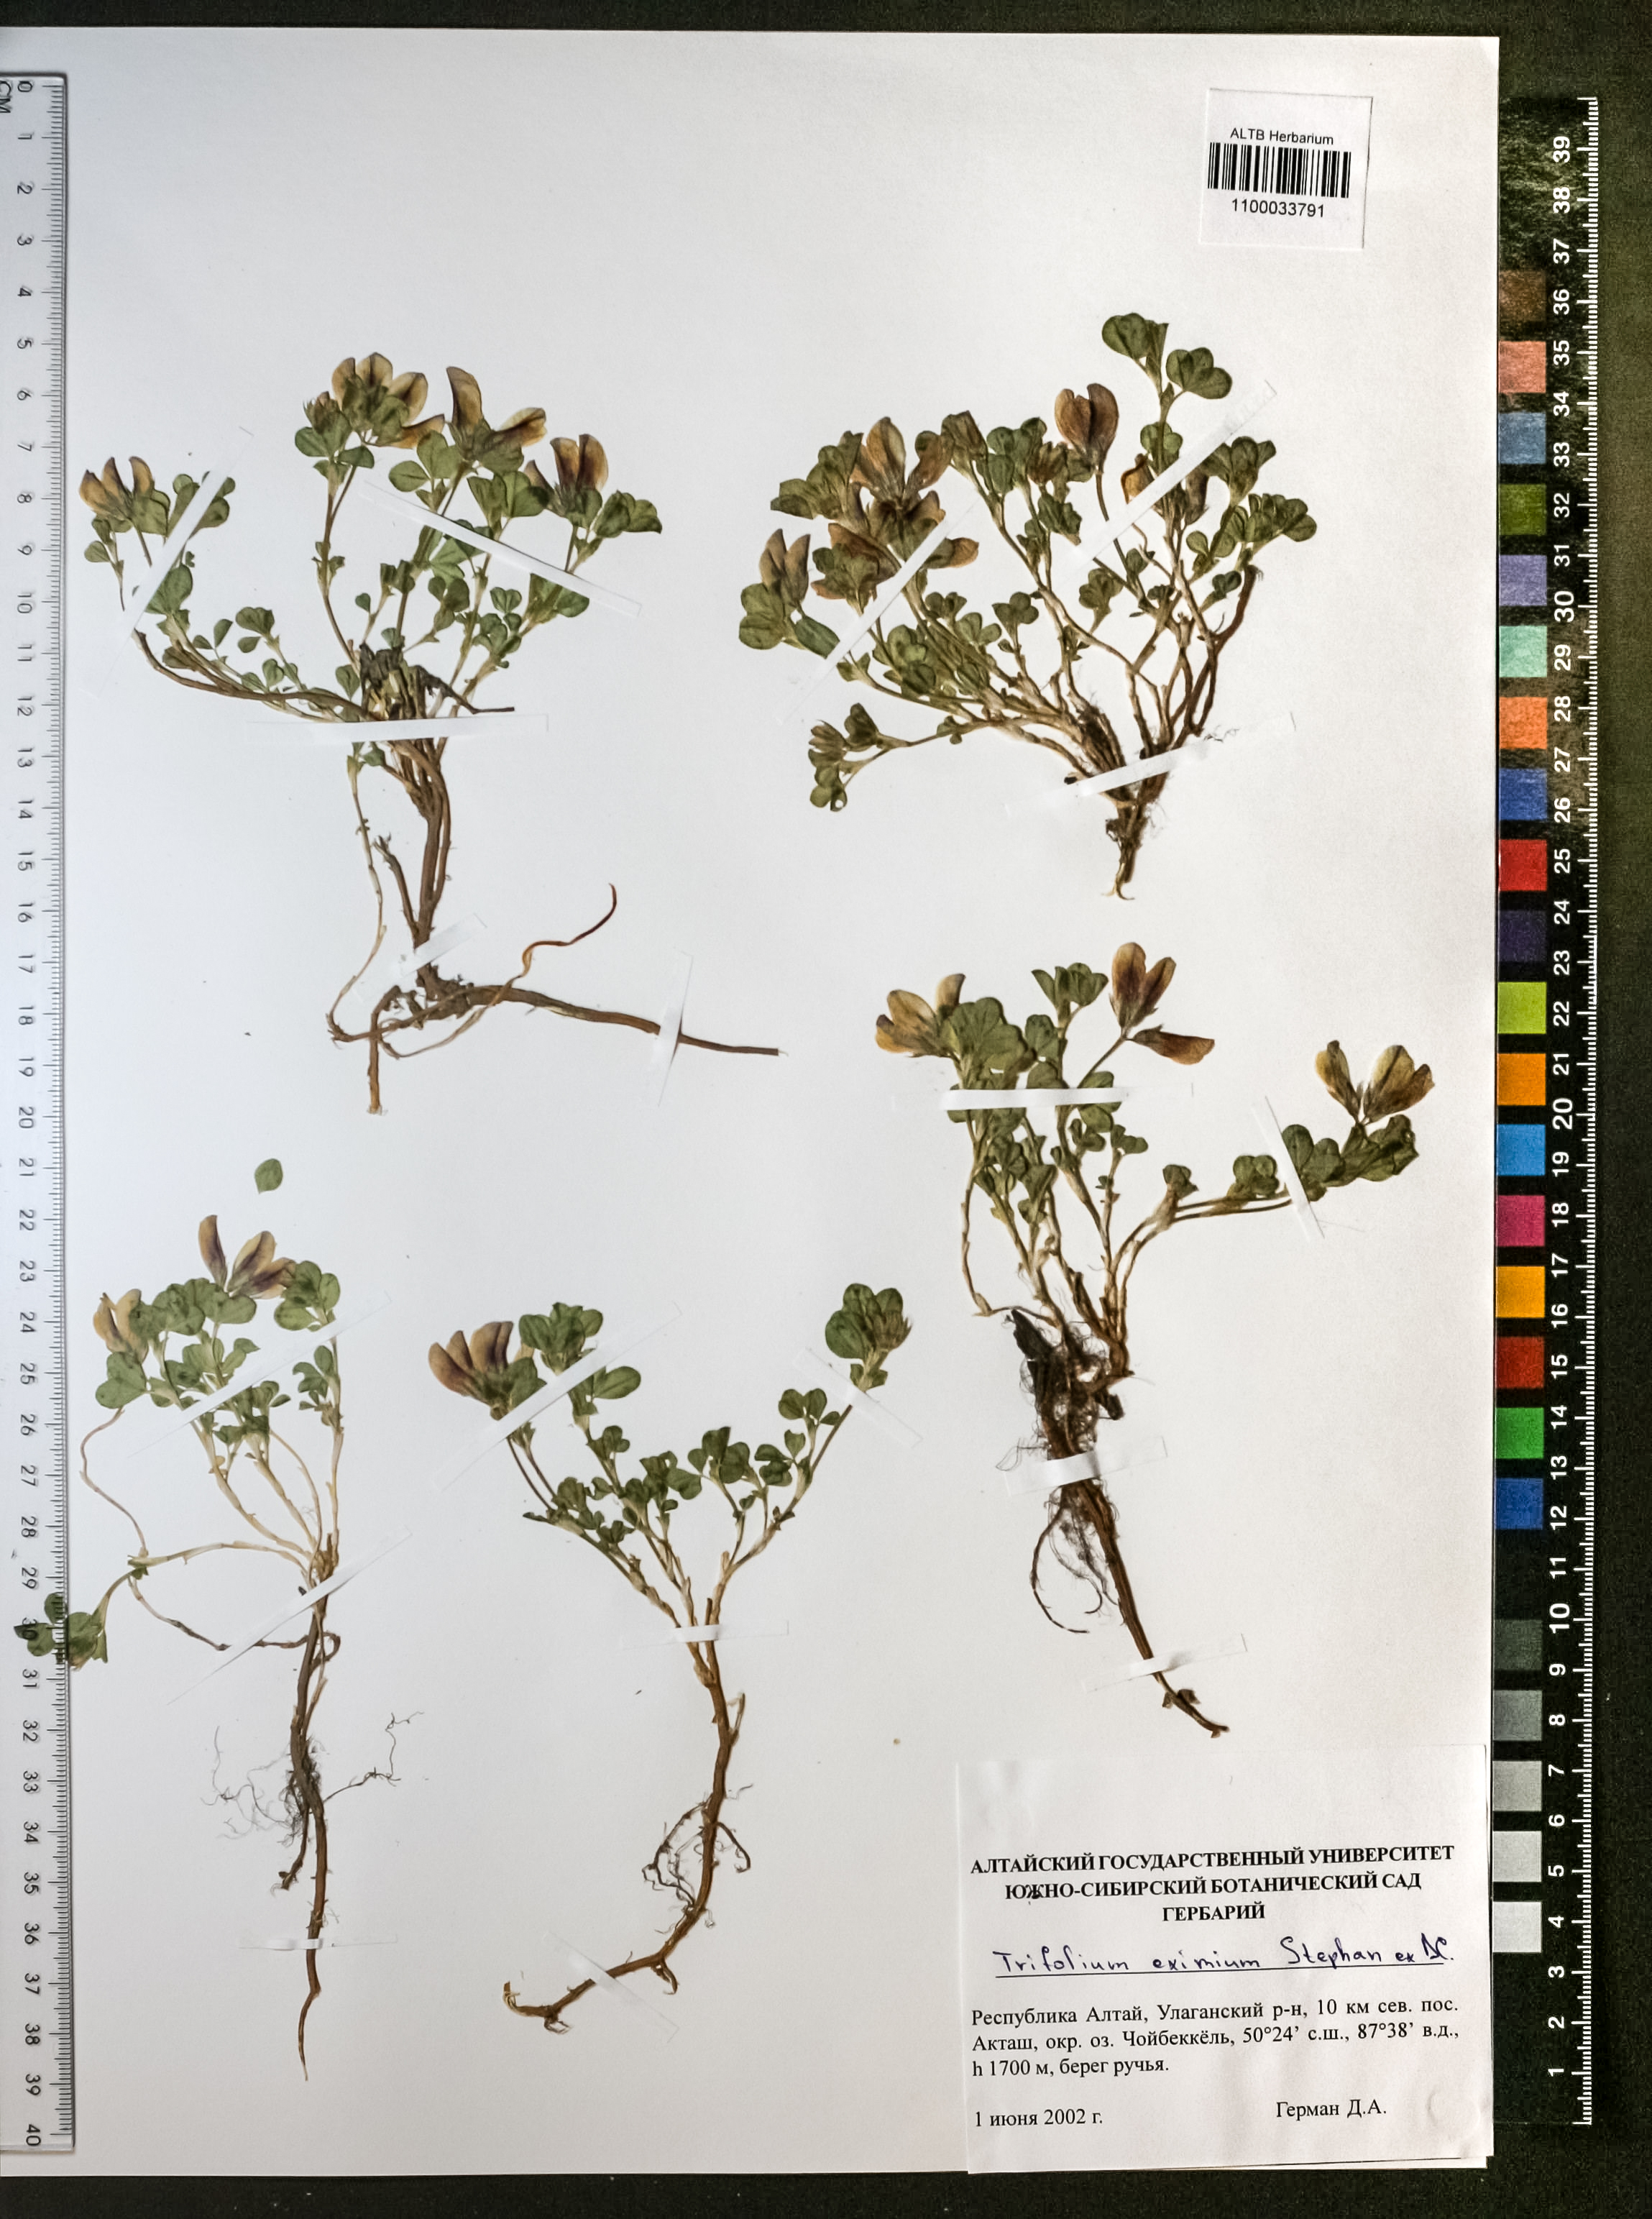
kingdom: Plantae
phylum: Tracheophyta
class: Magnoliopsida
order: Fabales
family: Fabaceae
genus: Trifolium
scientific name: Trifolium eximium
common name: Excellent clover
